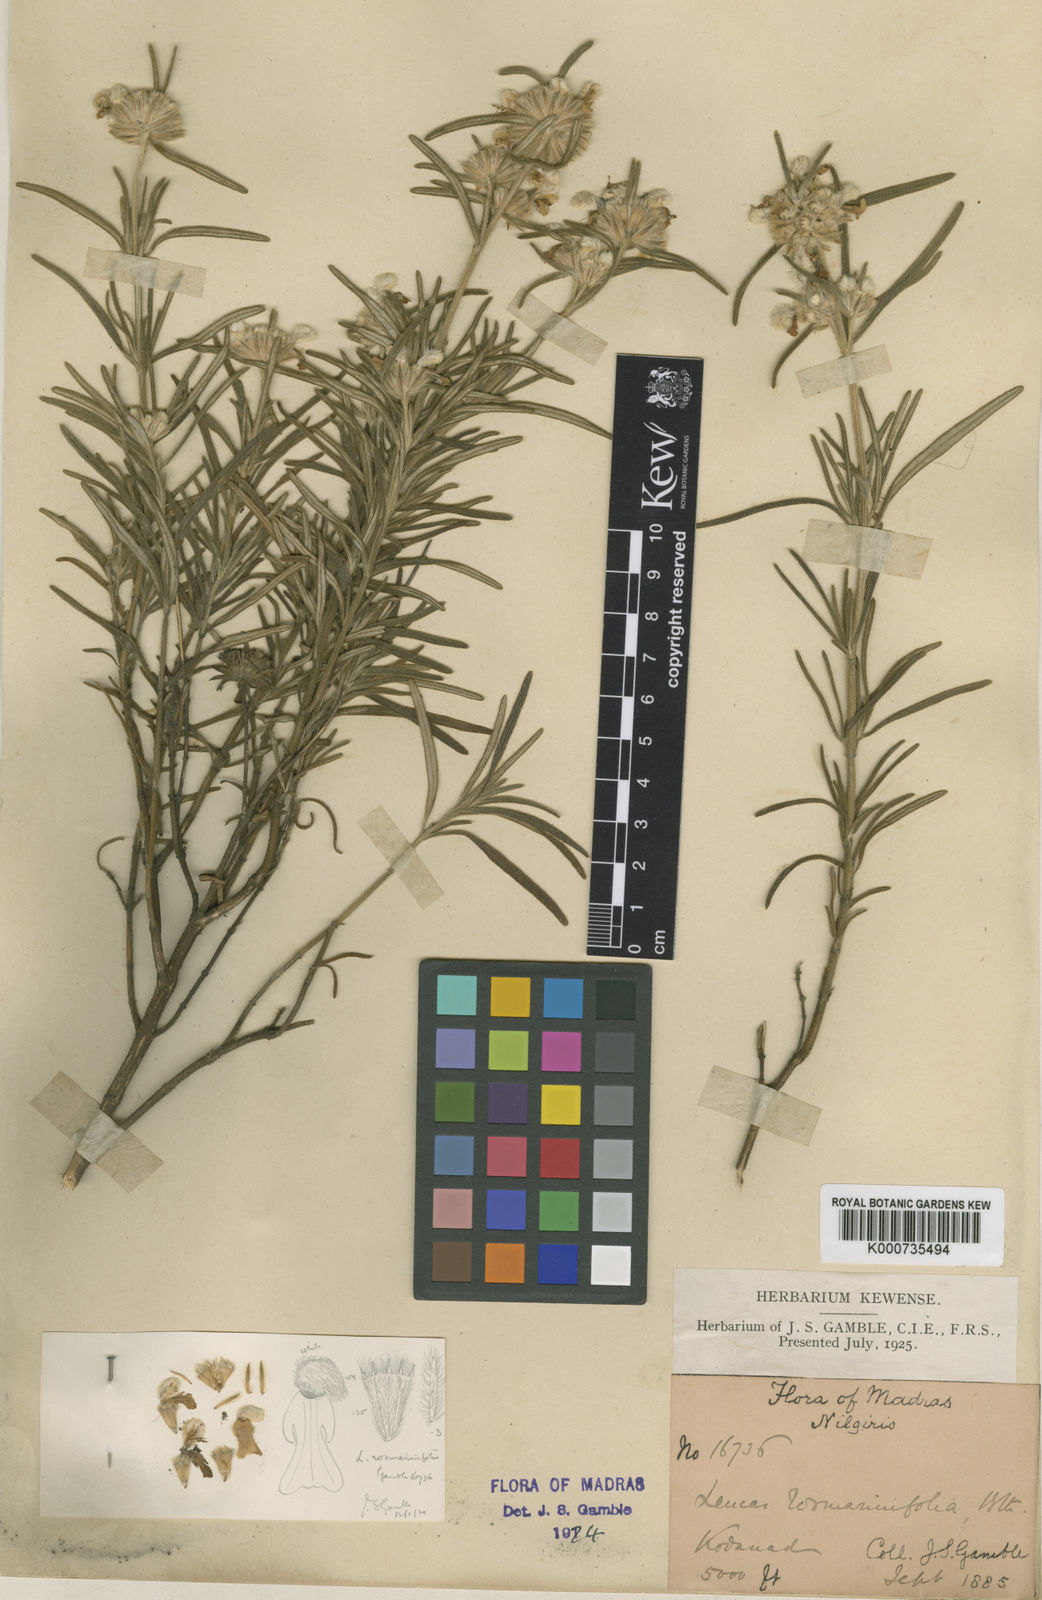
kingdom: Plantae
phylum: Tracheophyta
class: Magnoliopsida
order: Lamiales
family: Lamiaceae
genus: Leucas
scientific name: Leucas rosmarinifolia
